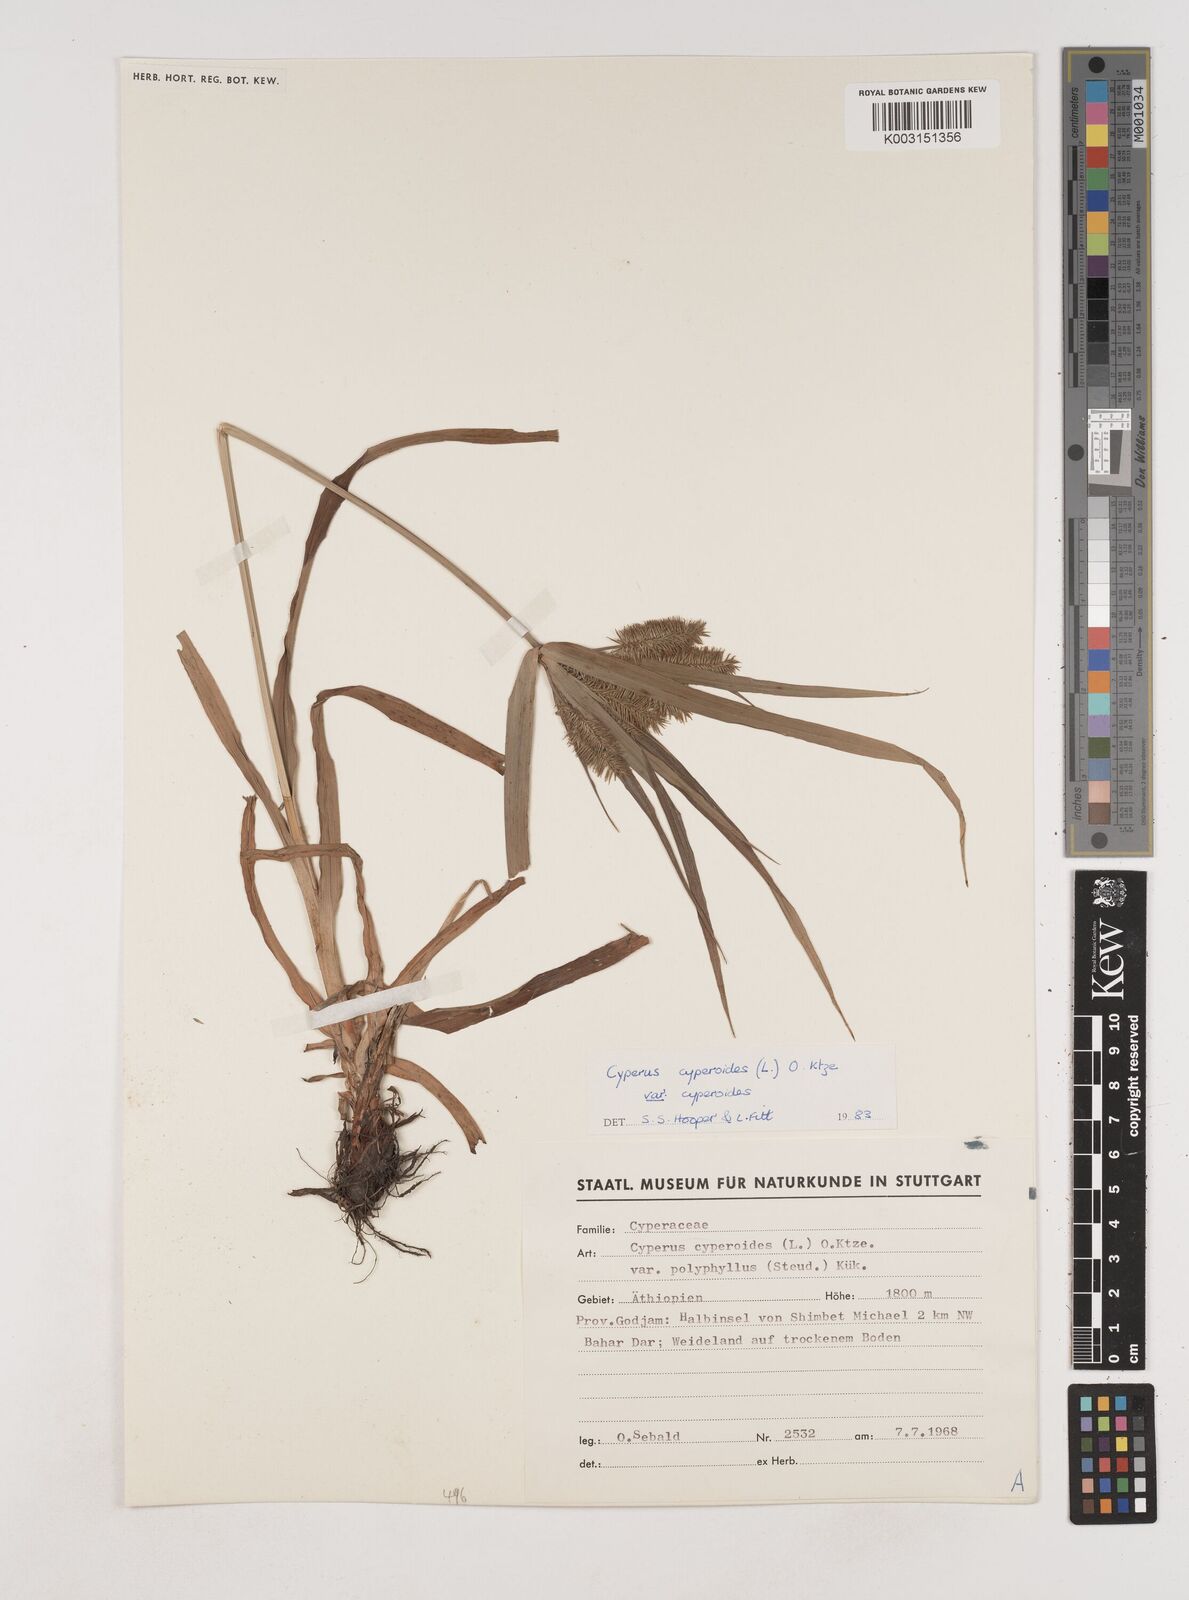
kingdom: Plantae
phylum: Tracheophyta
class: Liliopsida
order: Poales
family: Cyperaceae
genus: Cyperus
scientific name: Cyperus cyperoides
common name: Pacific island flat sedge
